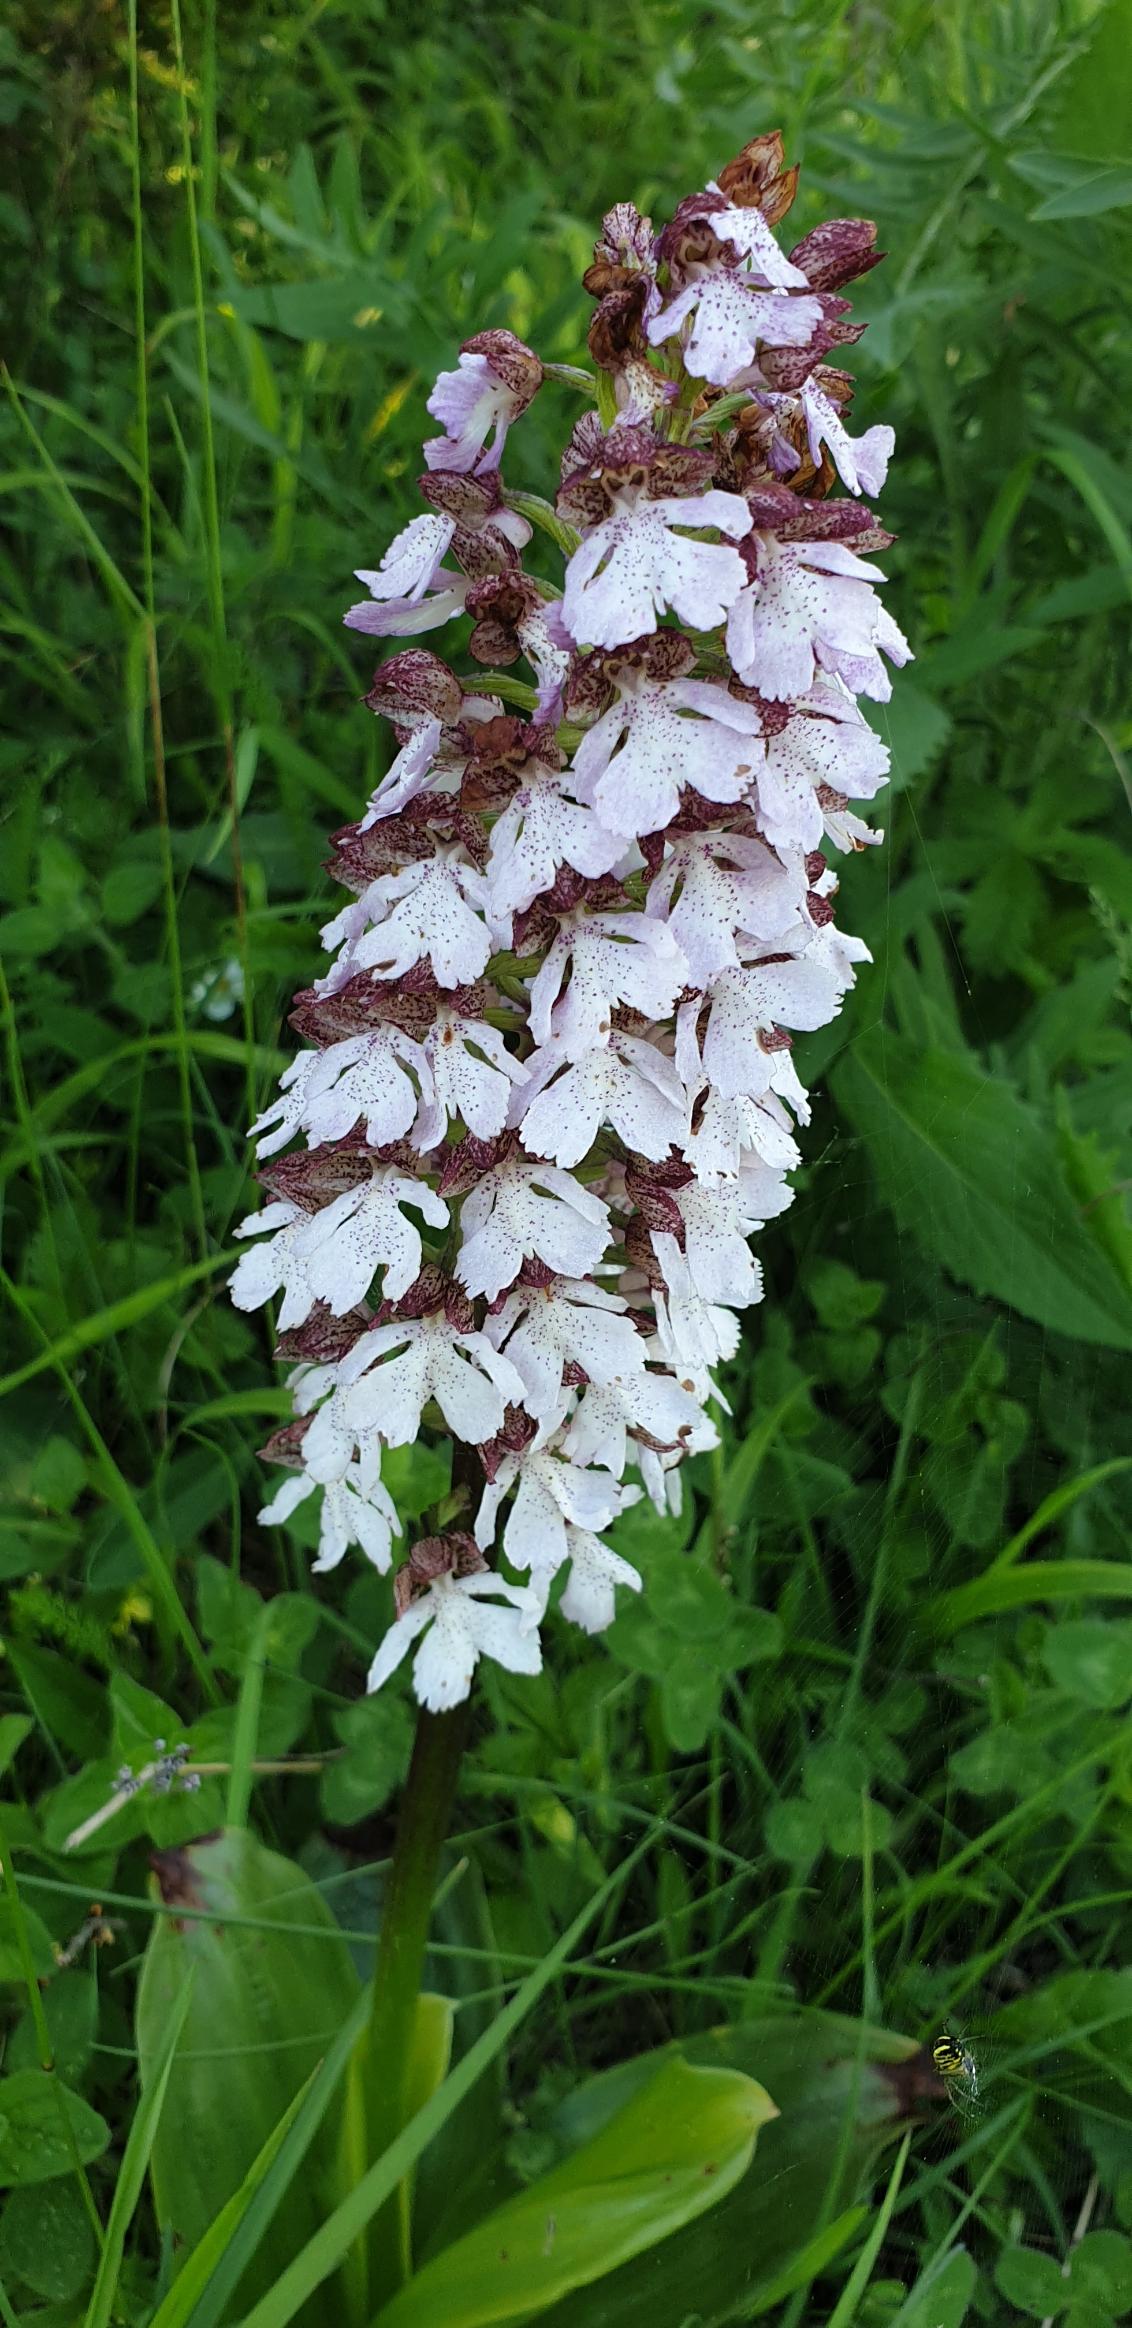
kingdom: Plantae
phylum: Tracheophyta
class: Liliopsida
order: Asparagales
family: Orchidaceae
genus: Orchis
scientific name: Orchis purpurea
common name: Stor gøgeurt
